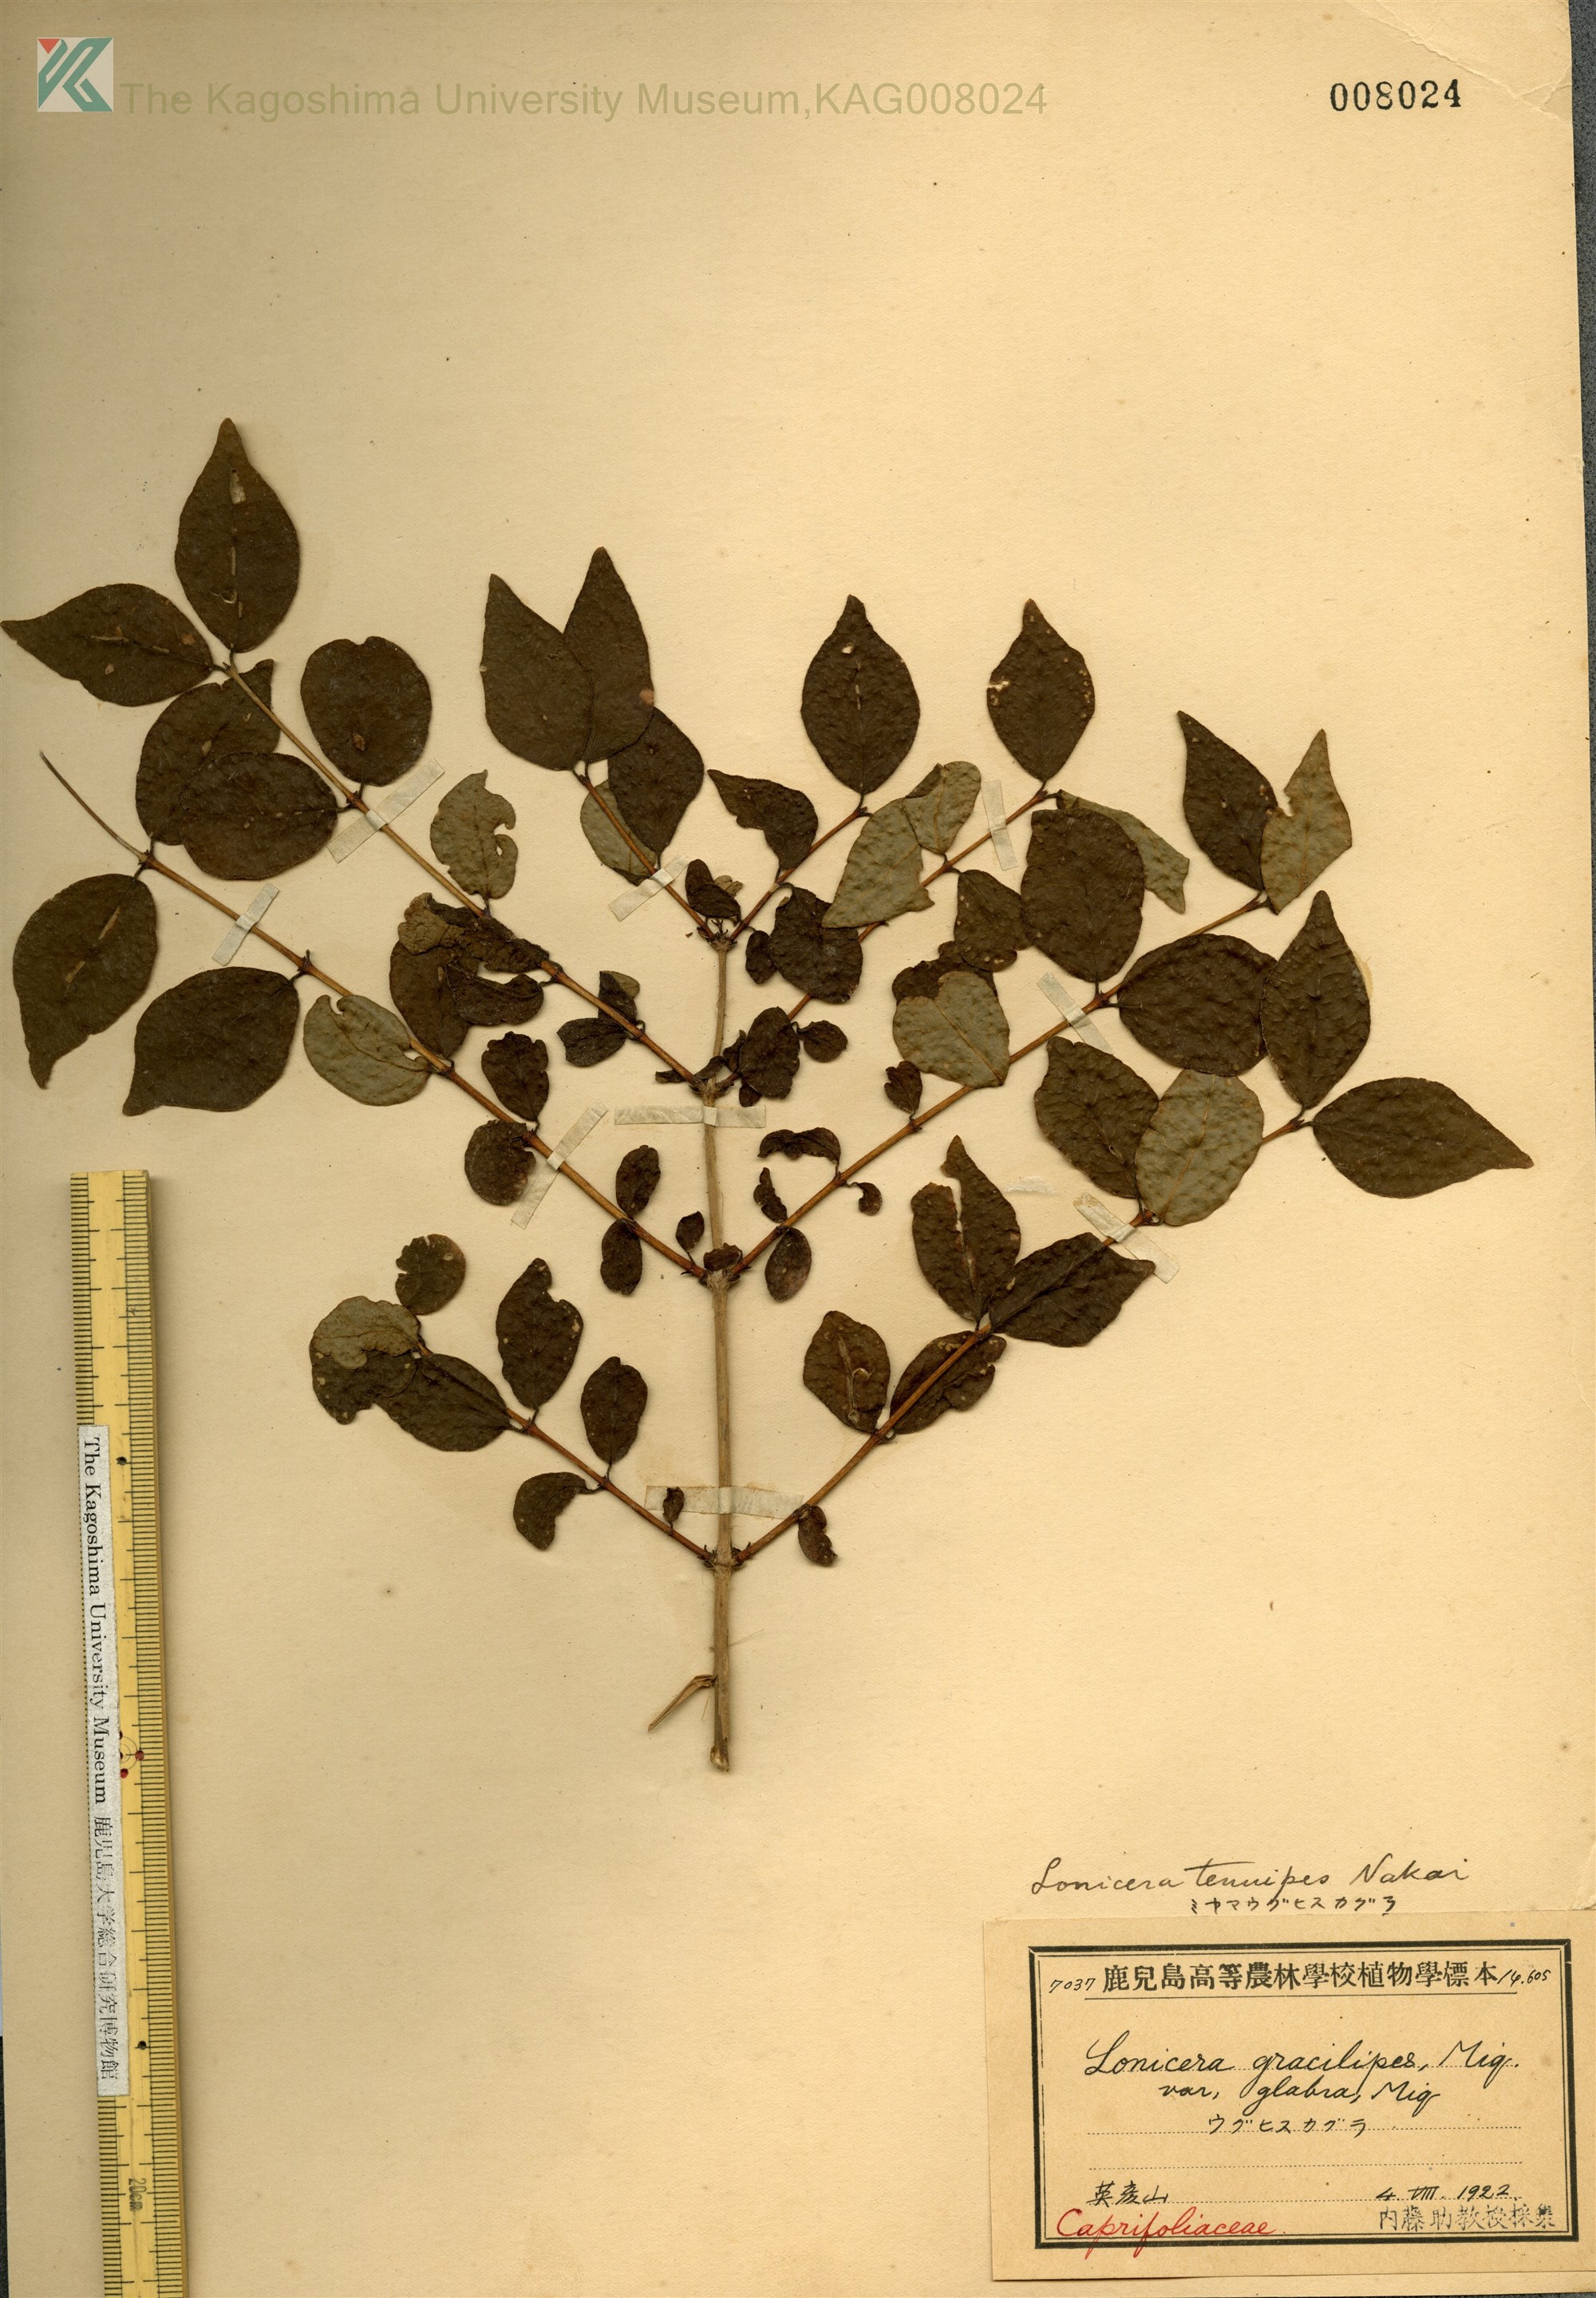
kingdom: Plantae
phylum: Tracheophyta
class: Magnoliopsida
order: Dipsacales
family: Caprifoliaceae
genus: Lonicera
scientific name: Lonicera gracilipes
